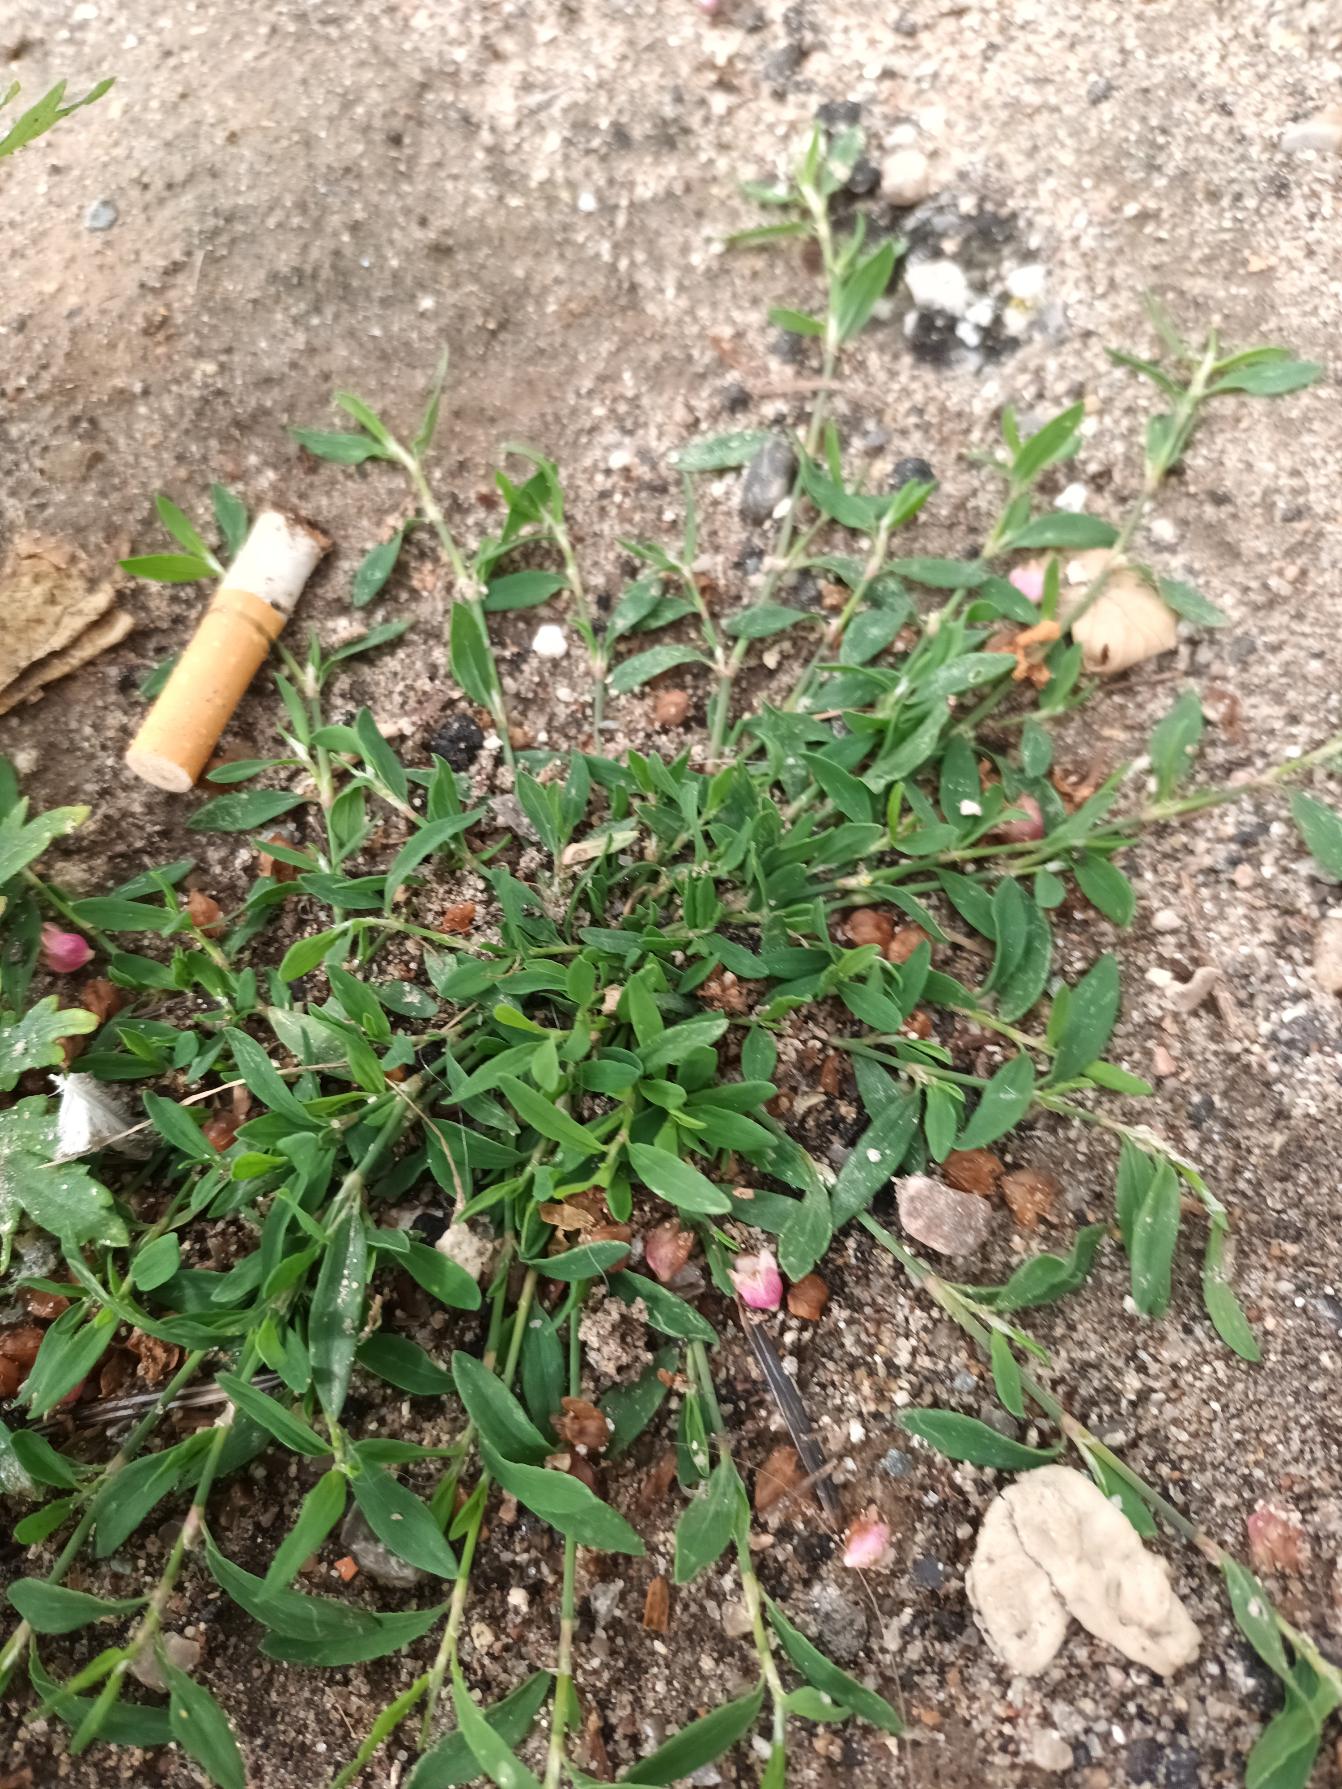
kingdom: Plantae
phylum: Tracheophyta
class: Magnoliopsida
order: Caryophyllales
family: Polygonaceae
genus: Polygonum
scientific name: Polygonum arenastrum
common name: Liggende vej-pileurt
